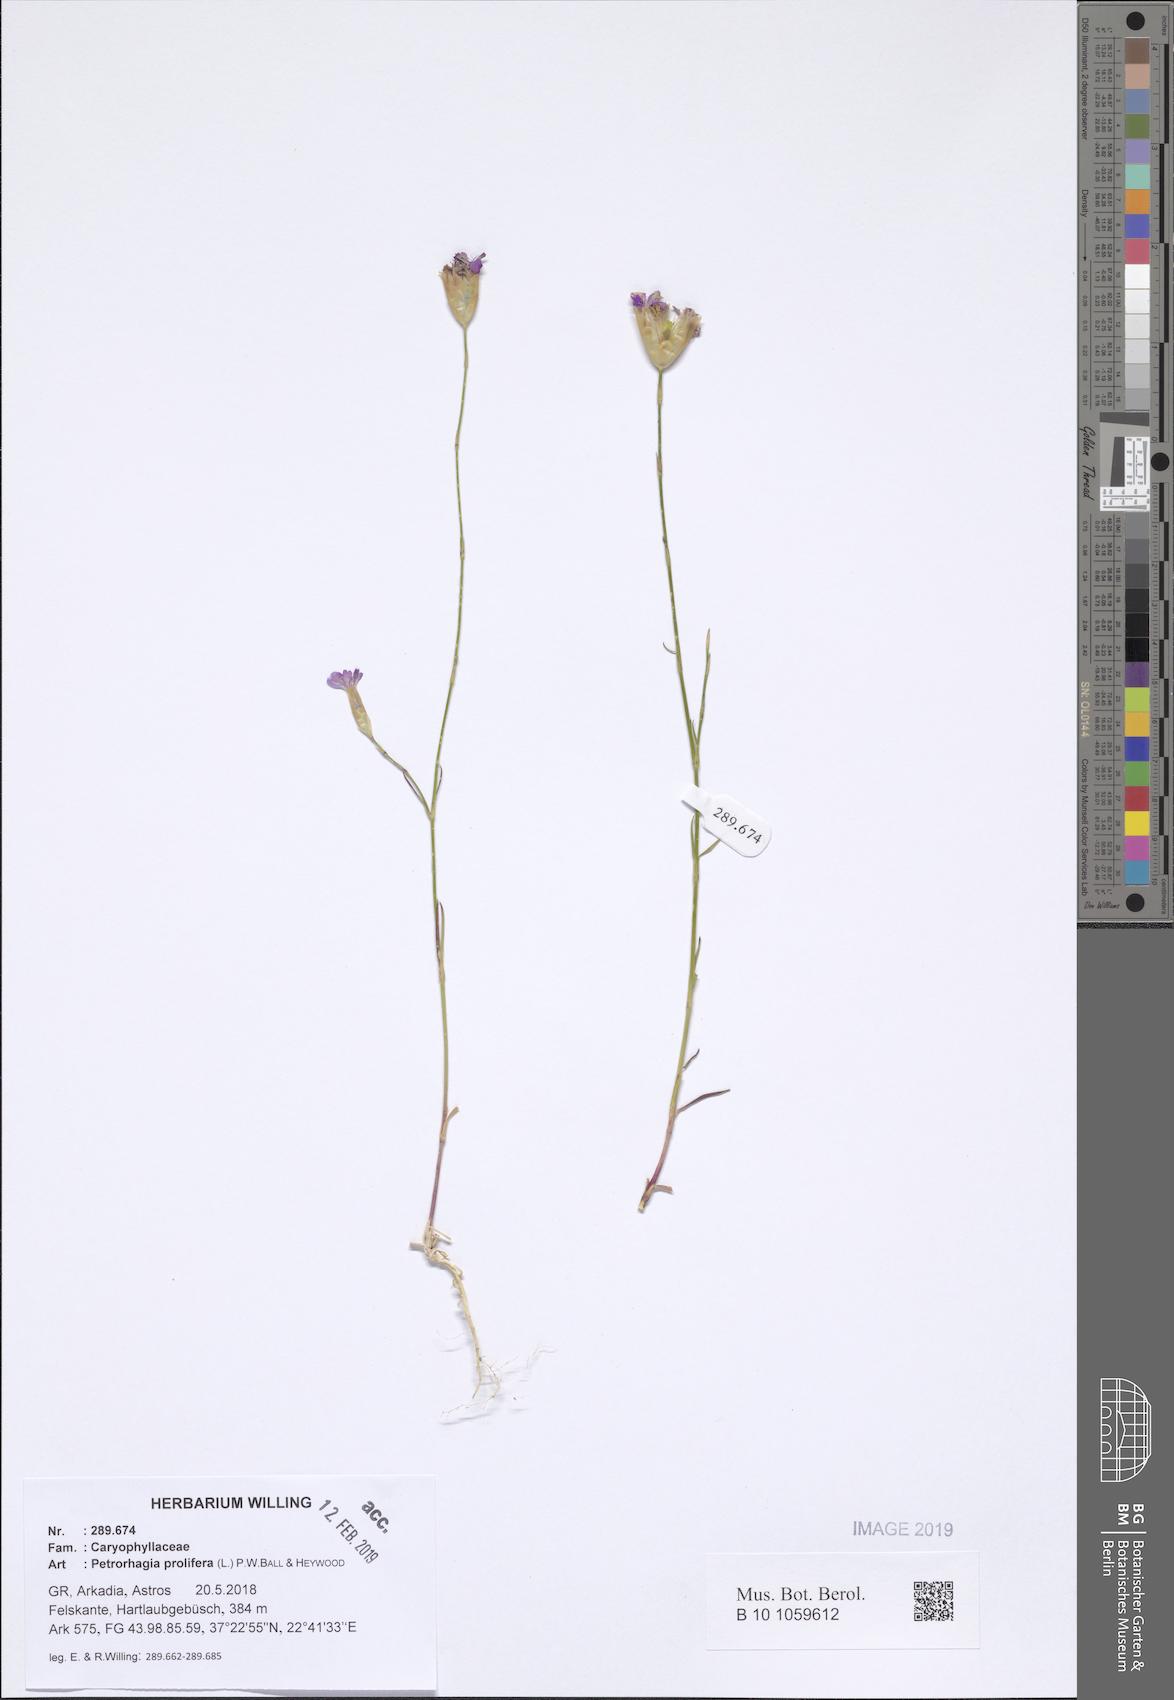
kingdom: Plantae
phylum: Tracheophyta
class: Magnoliopsida
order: Caryophyllales
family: Caryophyllaceae
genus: Petrorhagia
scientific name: Petrorhagia prolifera
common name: Proliferous pink
